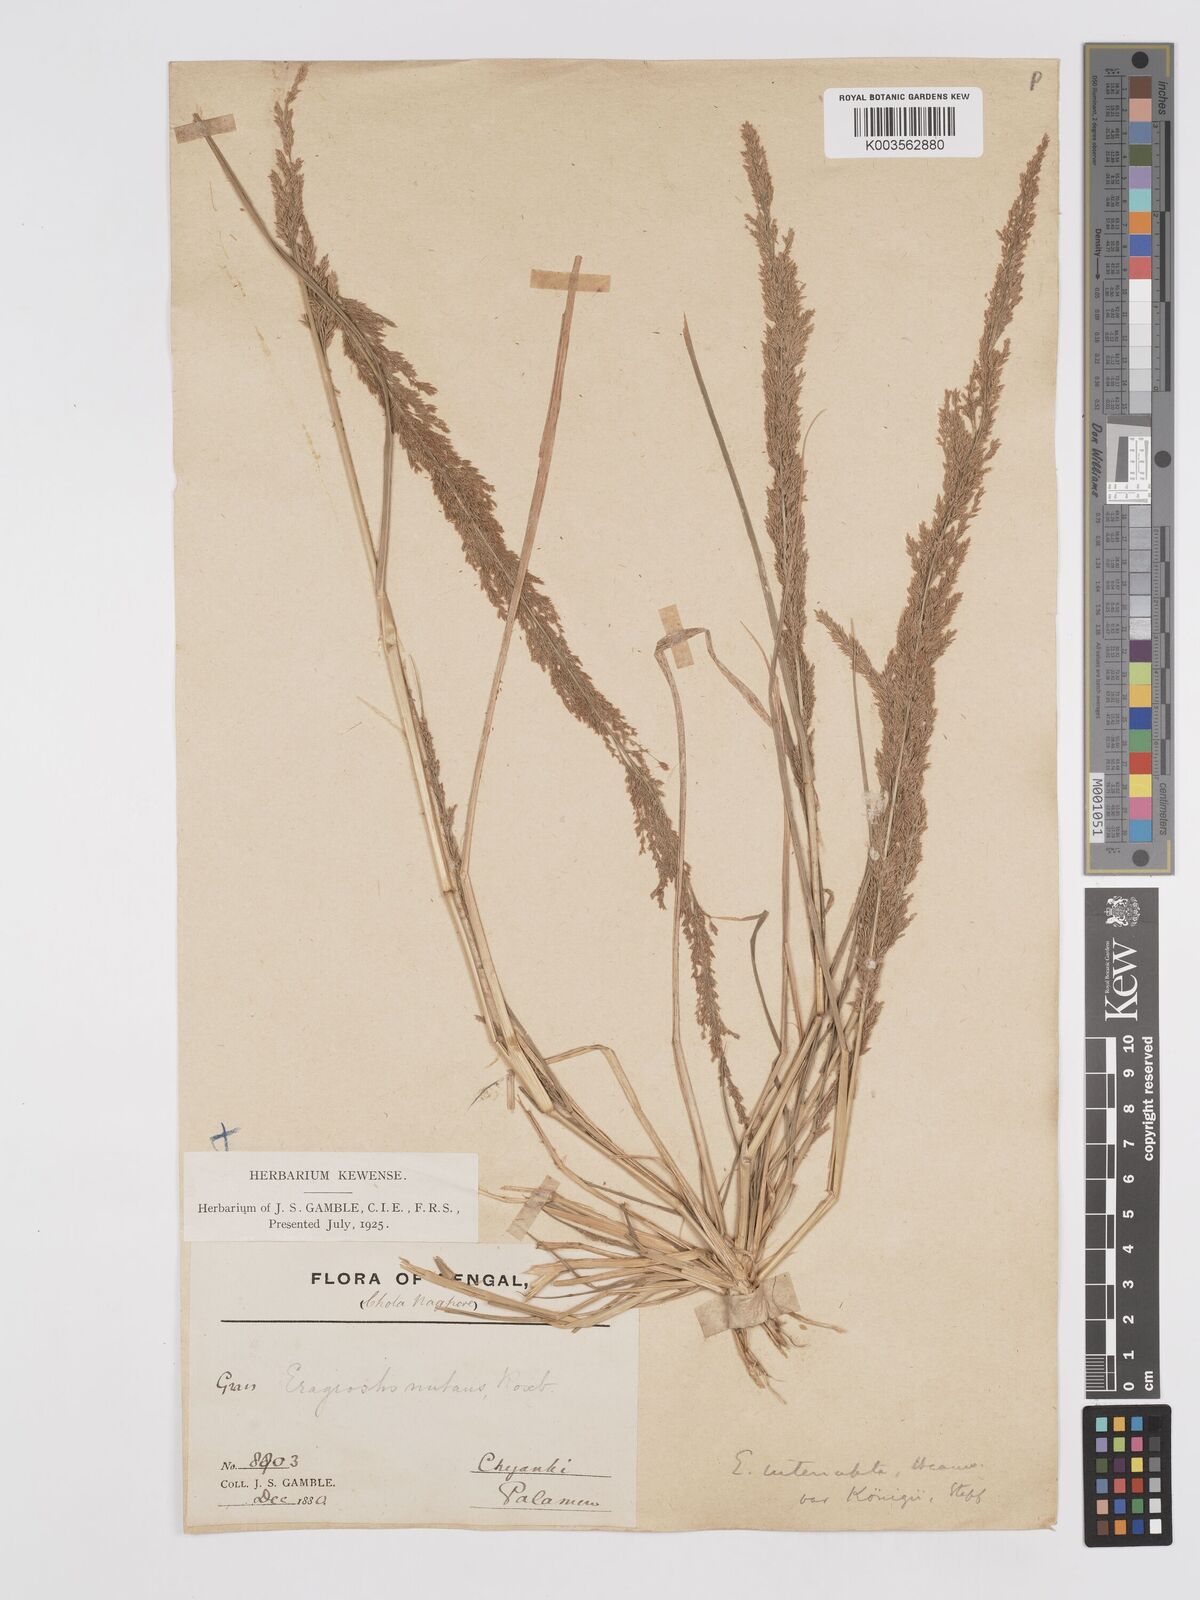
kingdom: Plantae
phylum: Tracheophyta
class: Liliopsida
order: Poales
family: Poaceae
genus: Eragrostis
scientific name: Eragrostis japonica
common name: Pond lovegrass
